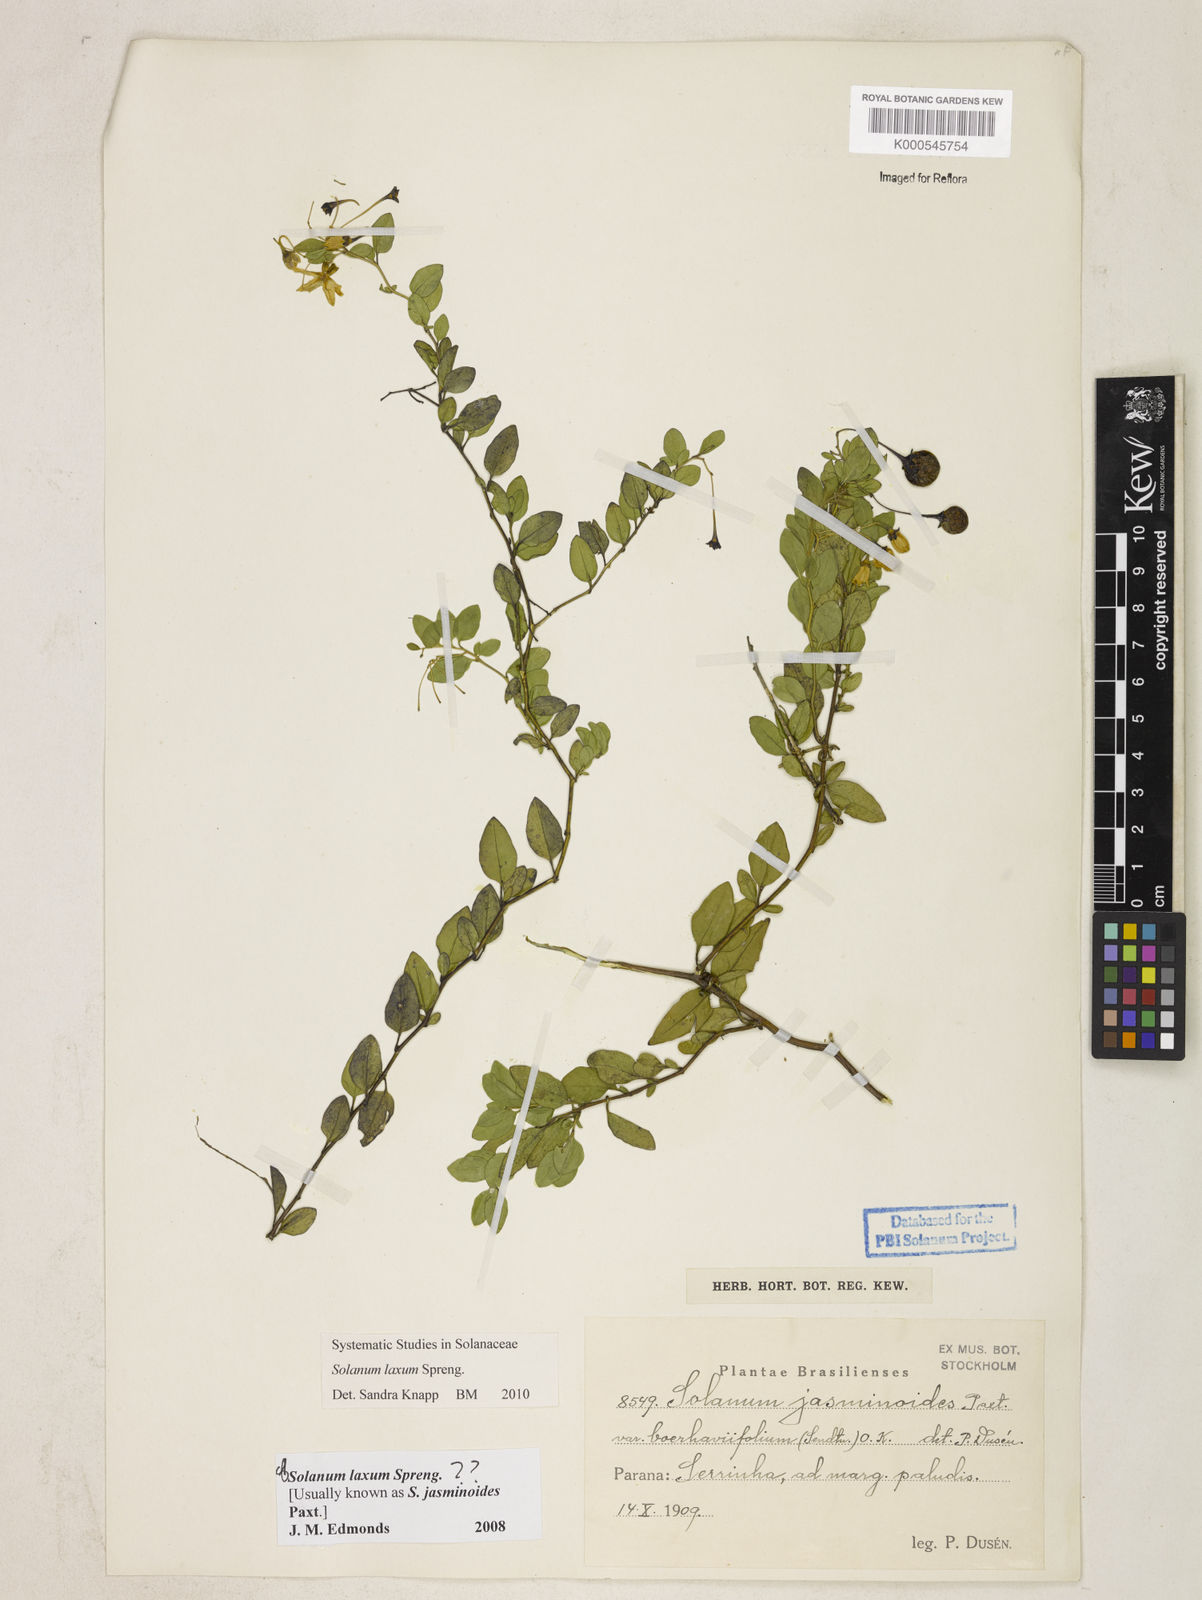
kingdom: Plantae
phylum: Tracheophyta
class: Magnoliopsida
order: Solanales
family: Solanaceae
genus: Solanum
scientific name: Solanum laxum
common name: Nightshade
